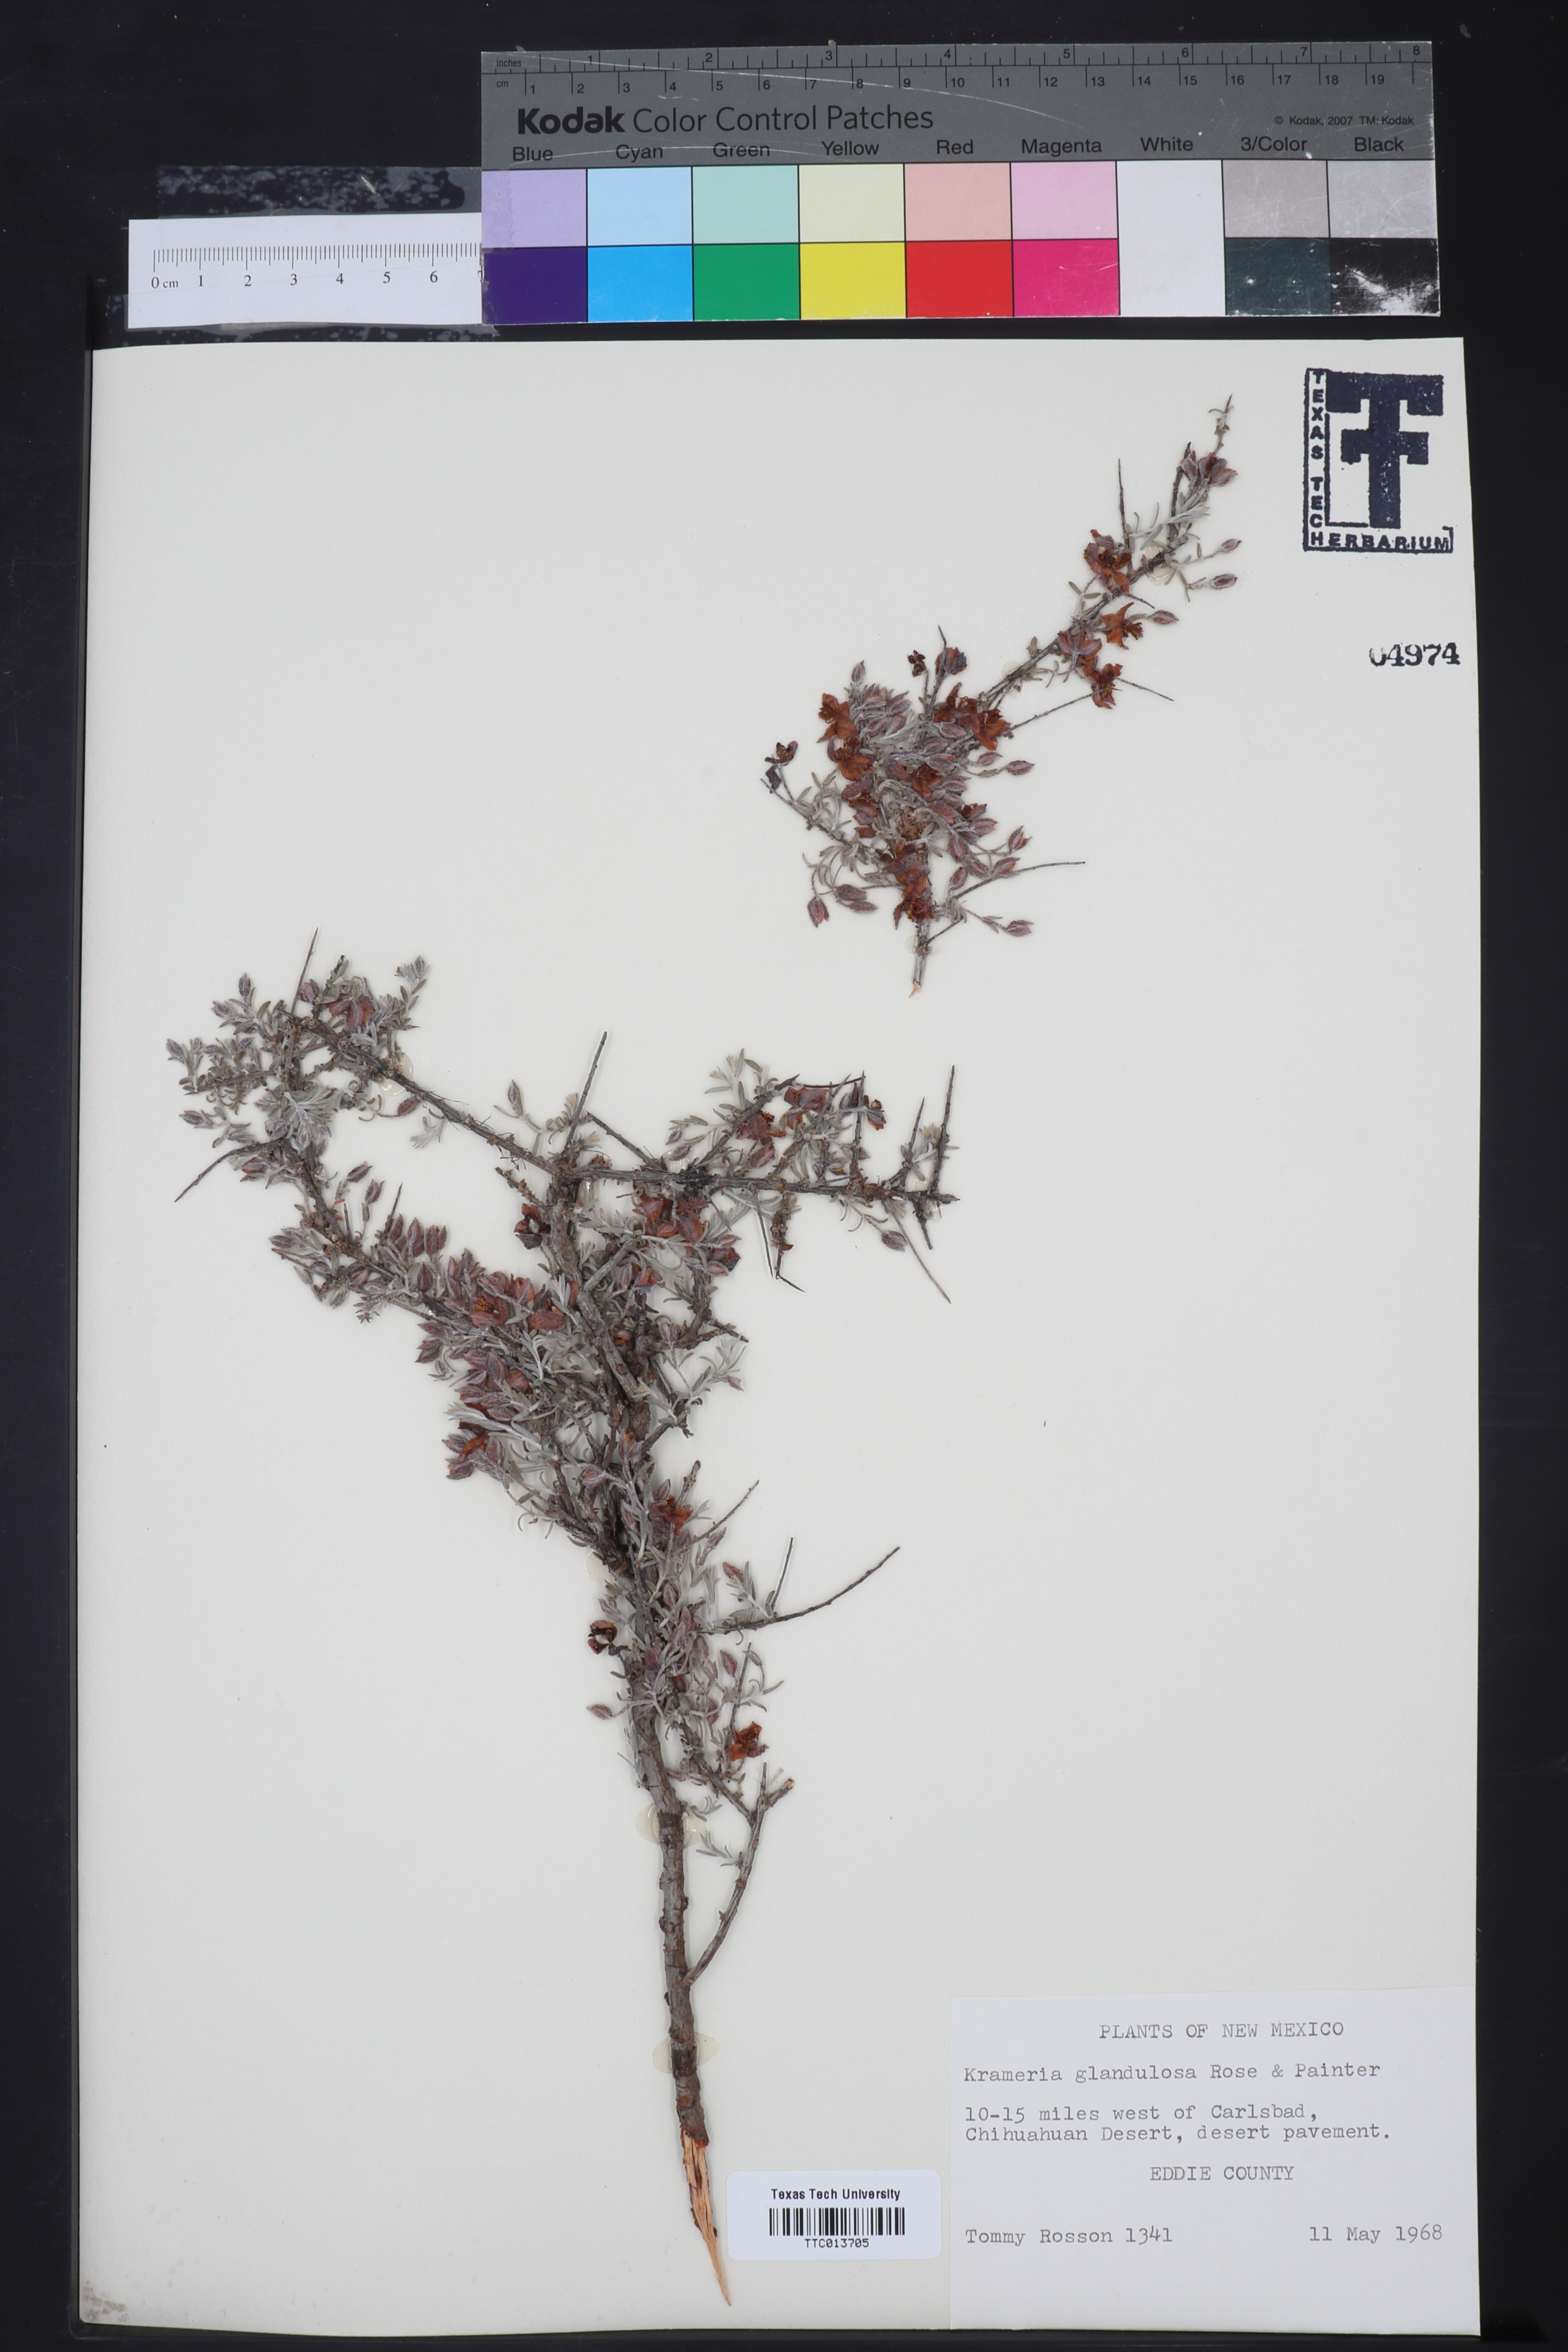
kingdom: Plantae
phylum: Tracheophyta
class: Magnoliopsida
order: Zygophyllales
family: Krameriaceae
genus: Krameria
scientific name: Krameria erecta
